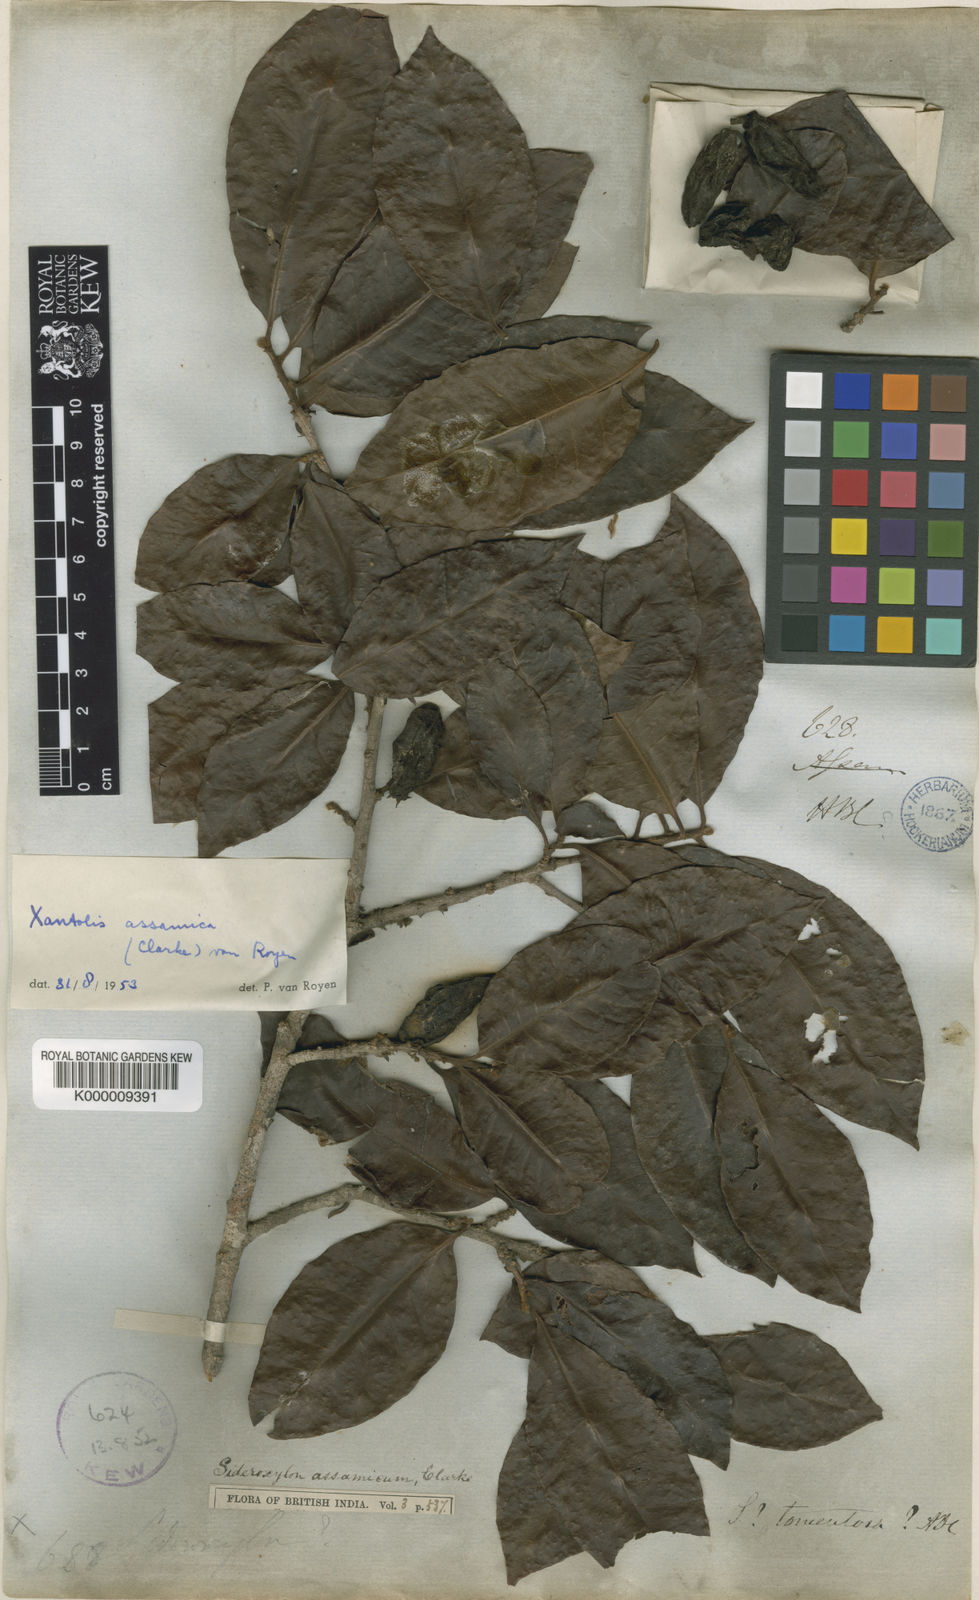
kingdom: Plantae
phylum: Tracheophyta
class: Magnoliopsida
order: Ericales
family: Sapotaceae
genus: Xantolis
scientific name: Xantolis assamica
